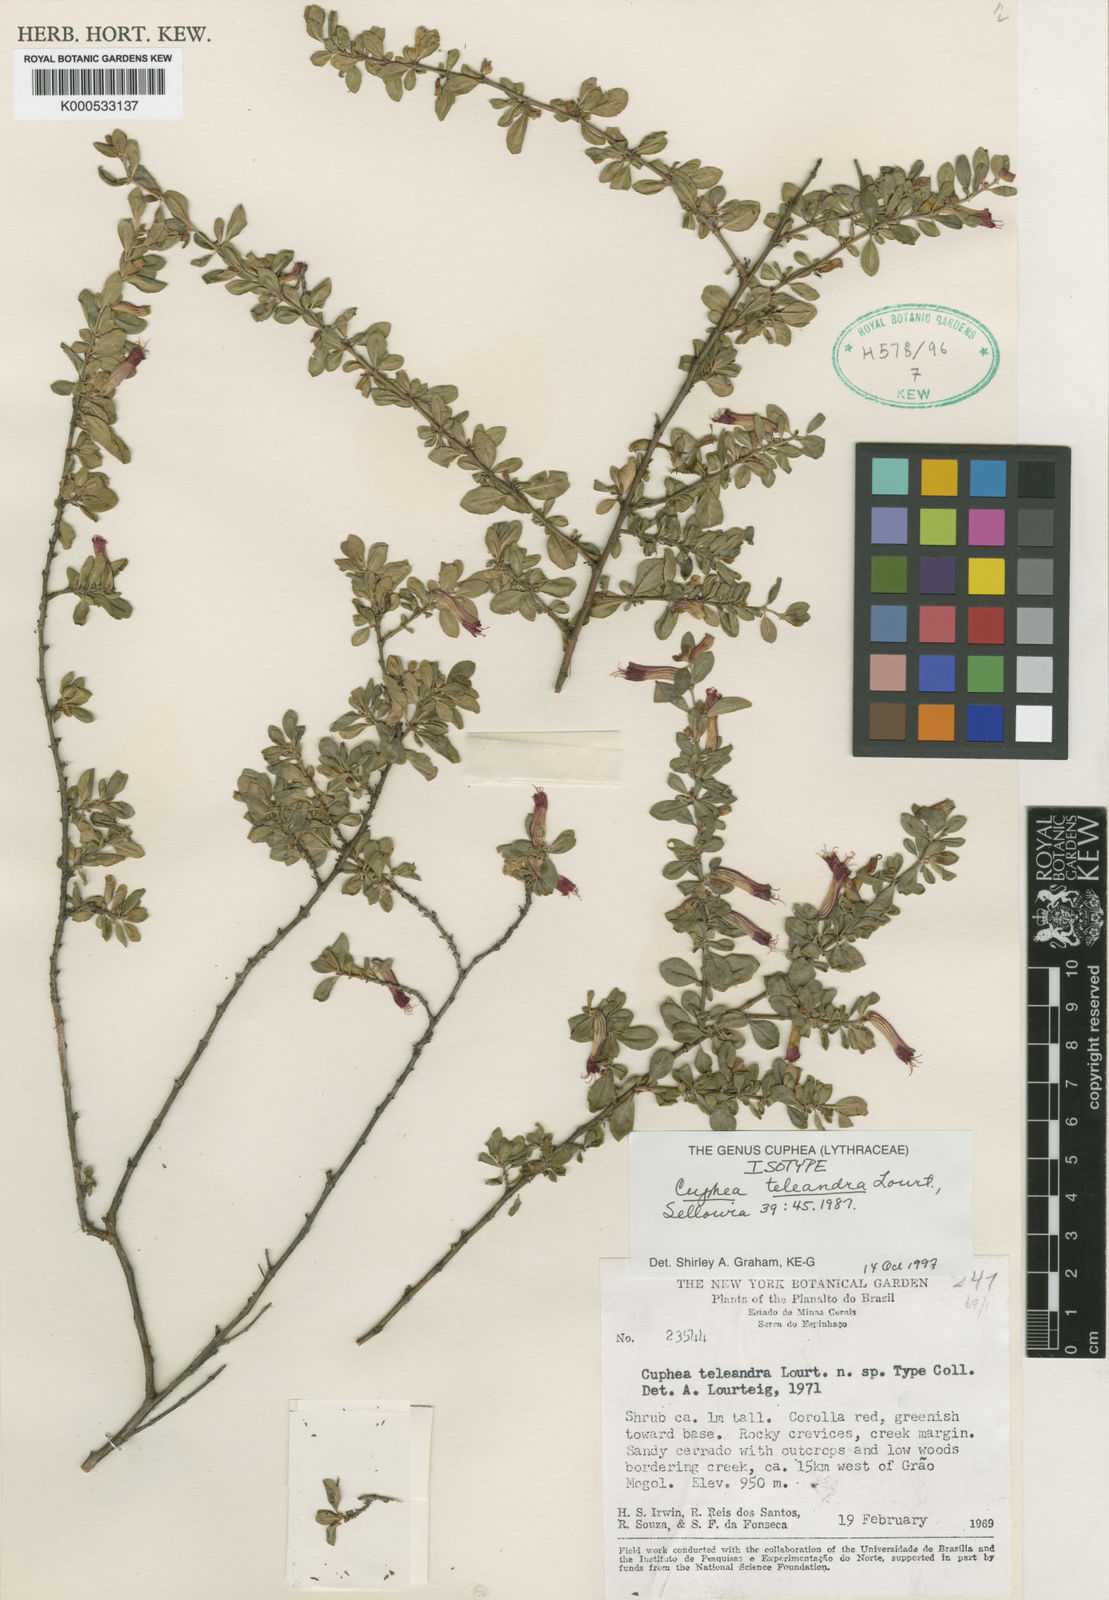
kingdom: Plantae
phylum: Tracheophyta
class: Magnoliopsida
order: Myrtales
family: Lythraceae
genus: Cuphea
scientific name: Cuphea teleandra
